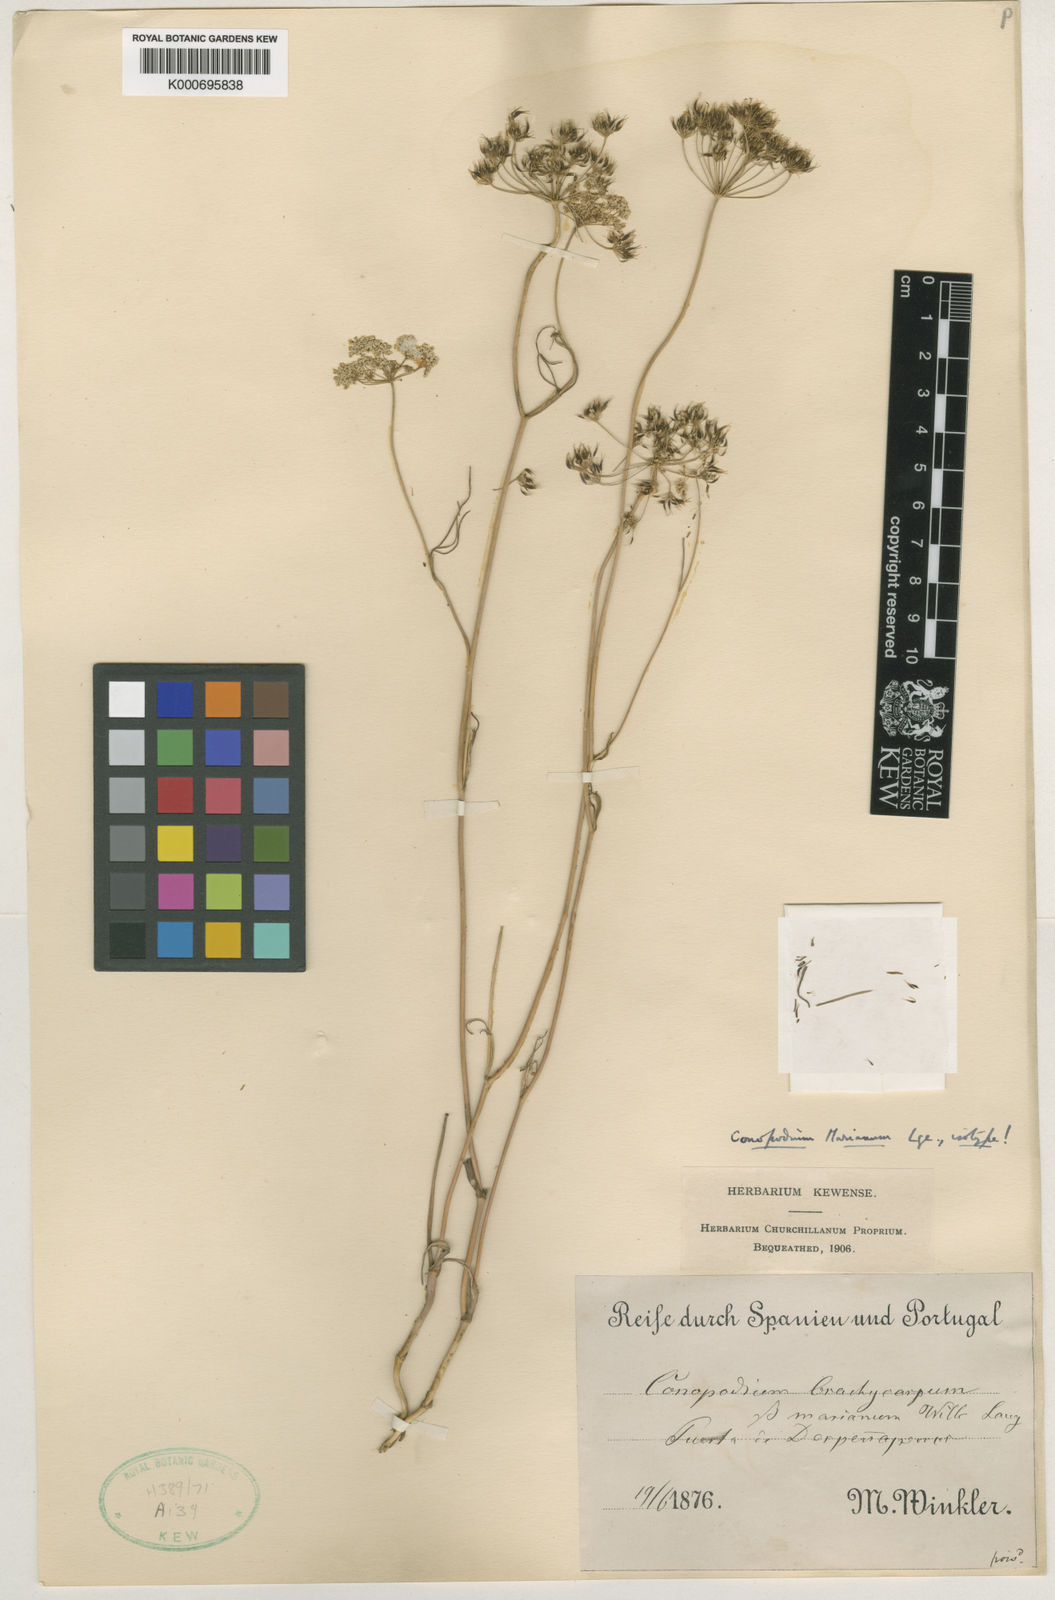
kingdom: Plantae
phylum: Tracheophyta
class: Magnoliopsida
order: Apiales
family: Apiaceae
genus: Geocaryum
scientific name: Geocaryum capillifolium
